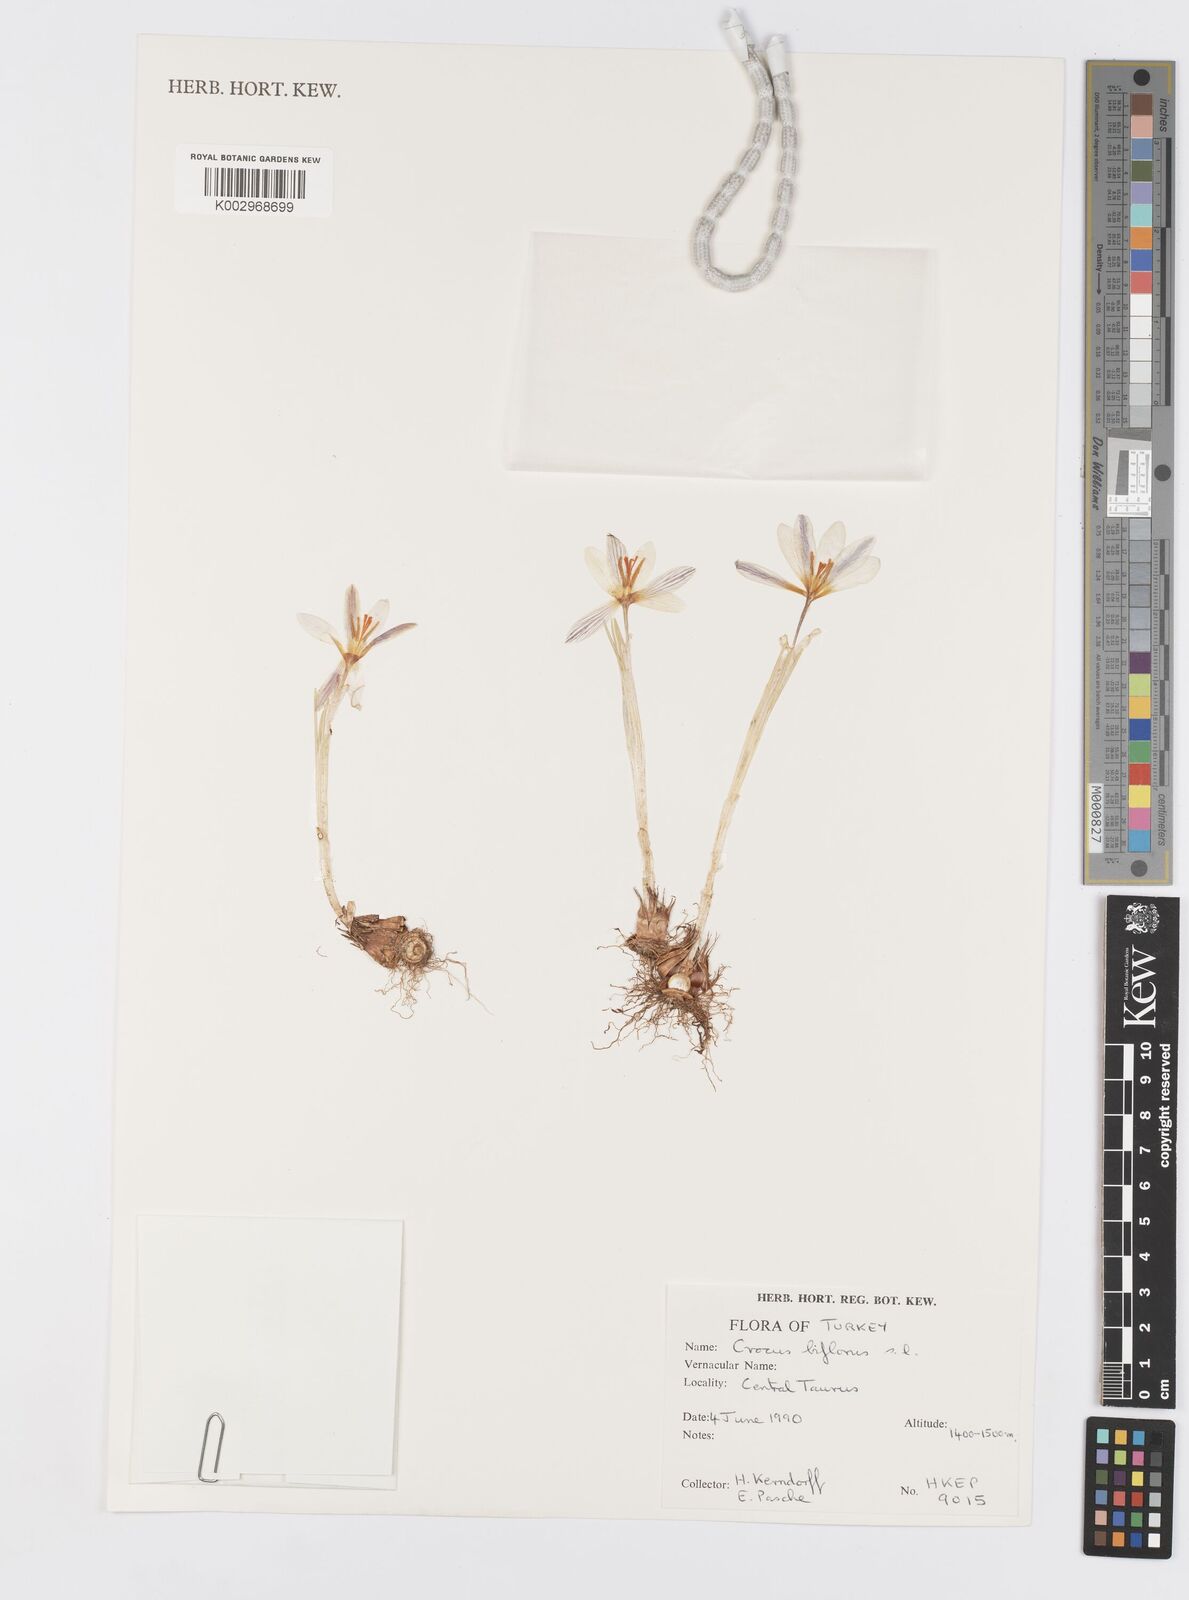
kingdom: Plantae
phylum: Tracheophyta
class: Liliopsida
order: Asparagales
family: Iridaceae
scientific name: Iridaceae
